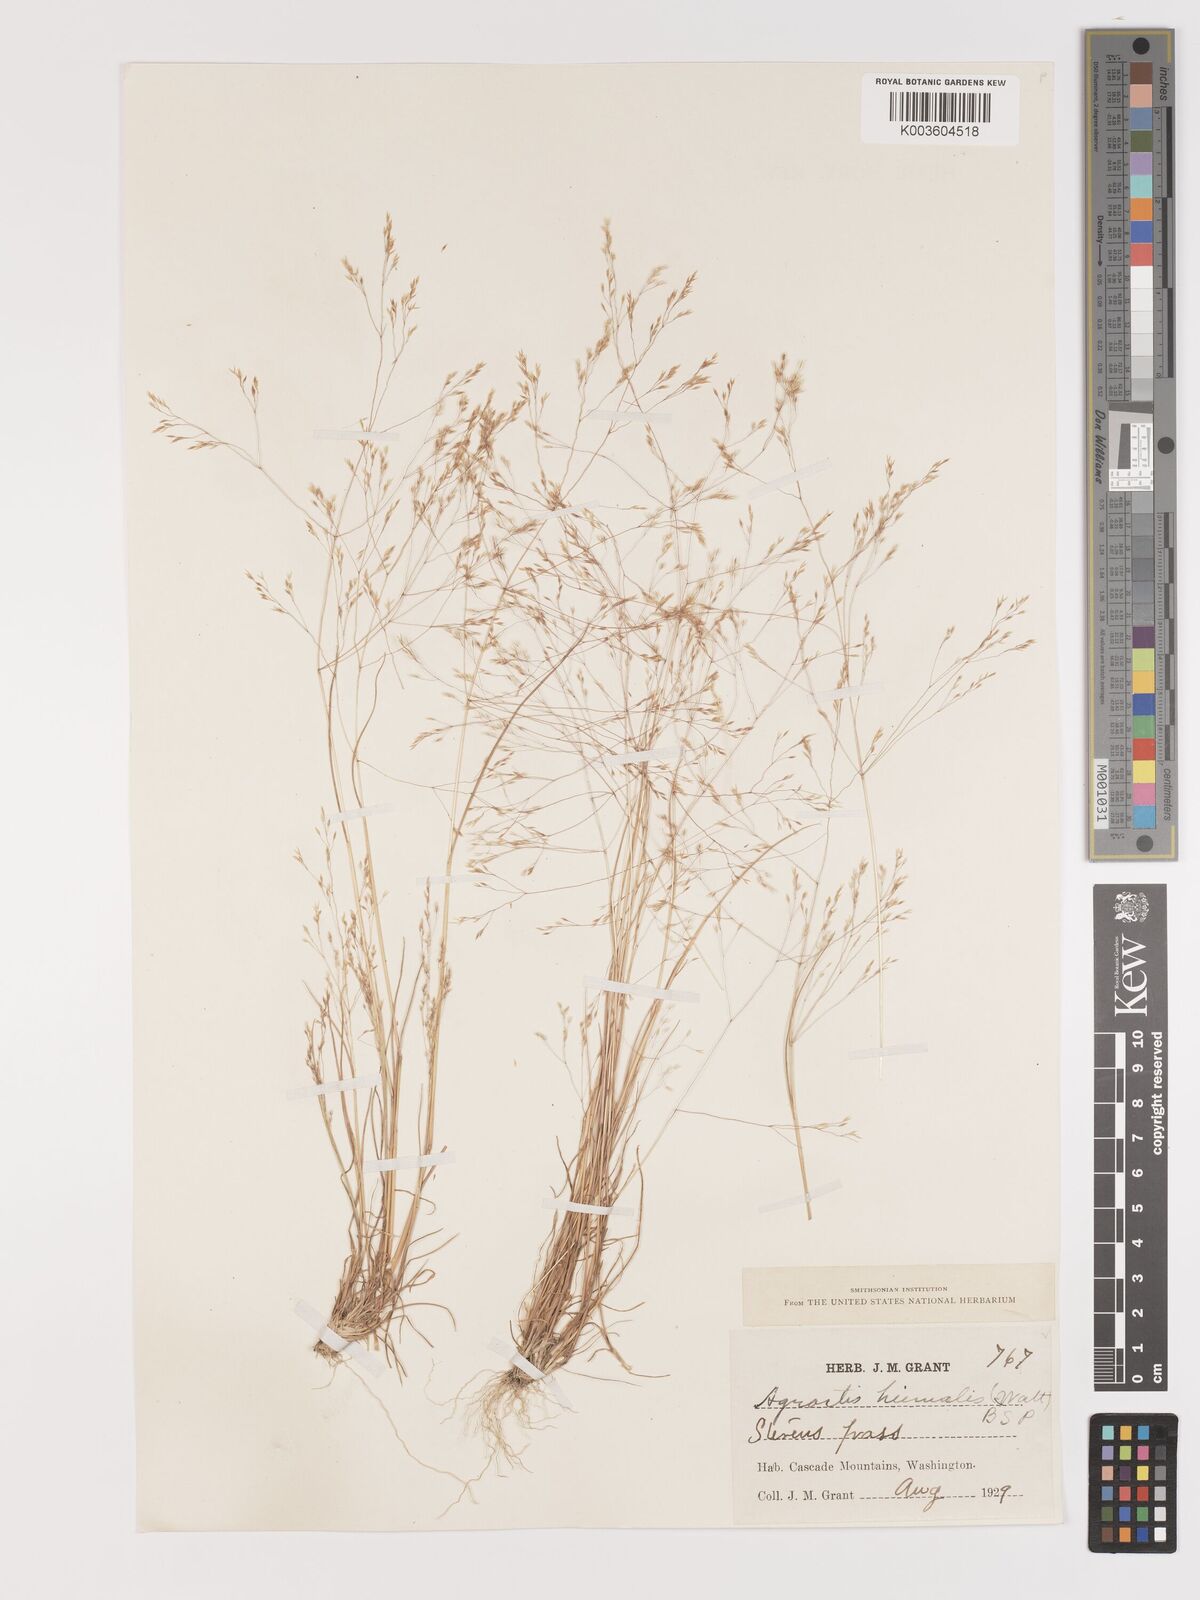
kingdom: Plantae
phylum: Tracheophyta
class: Liliopsida
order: Poales
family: Poaceae
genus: Agrostis
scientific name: Agrostis hyemalis
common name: Small bent
